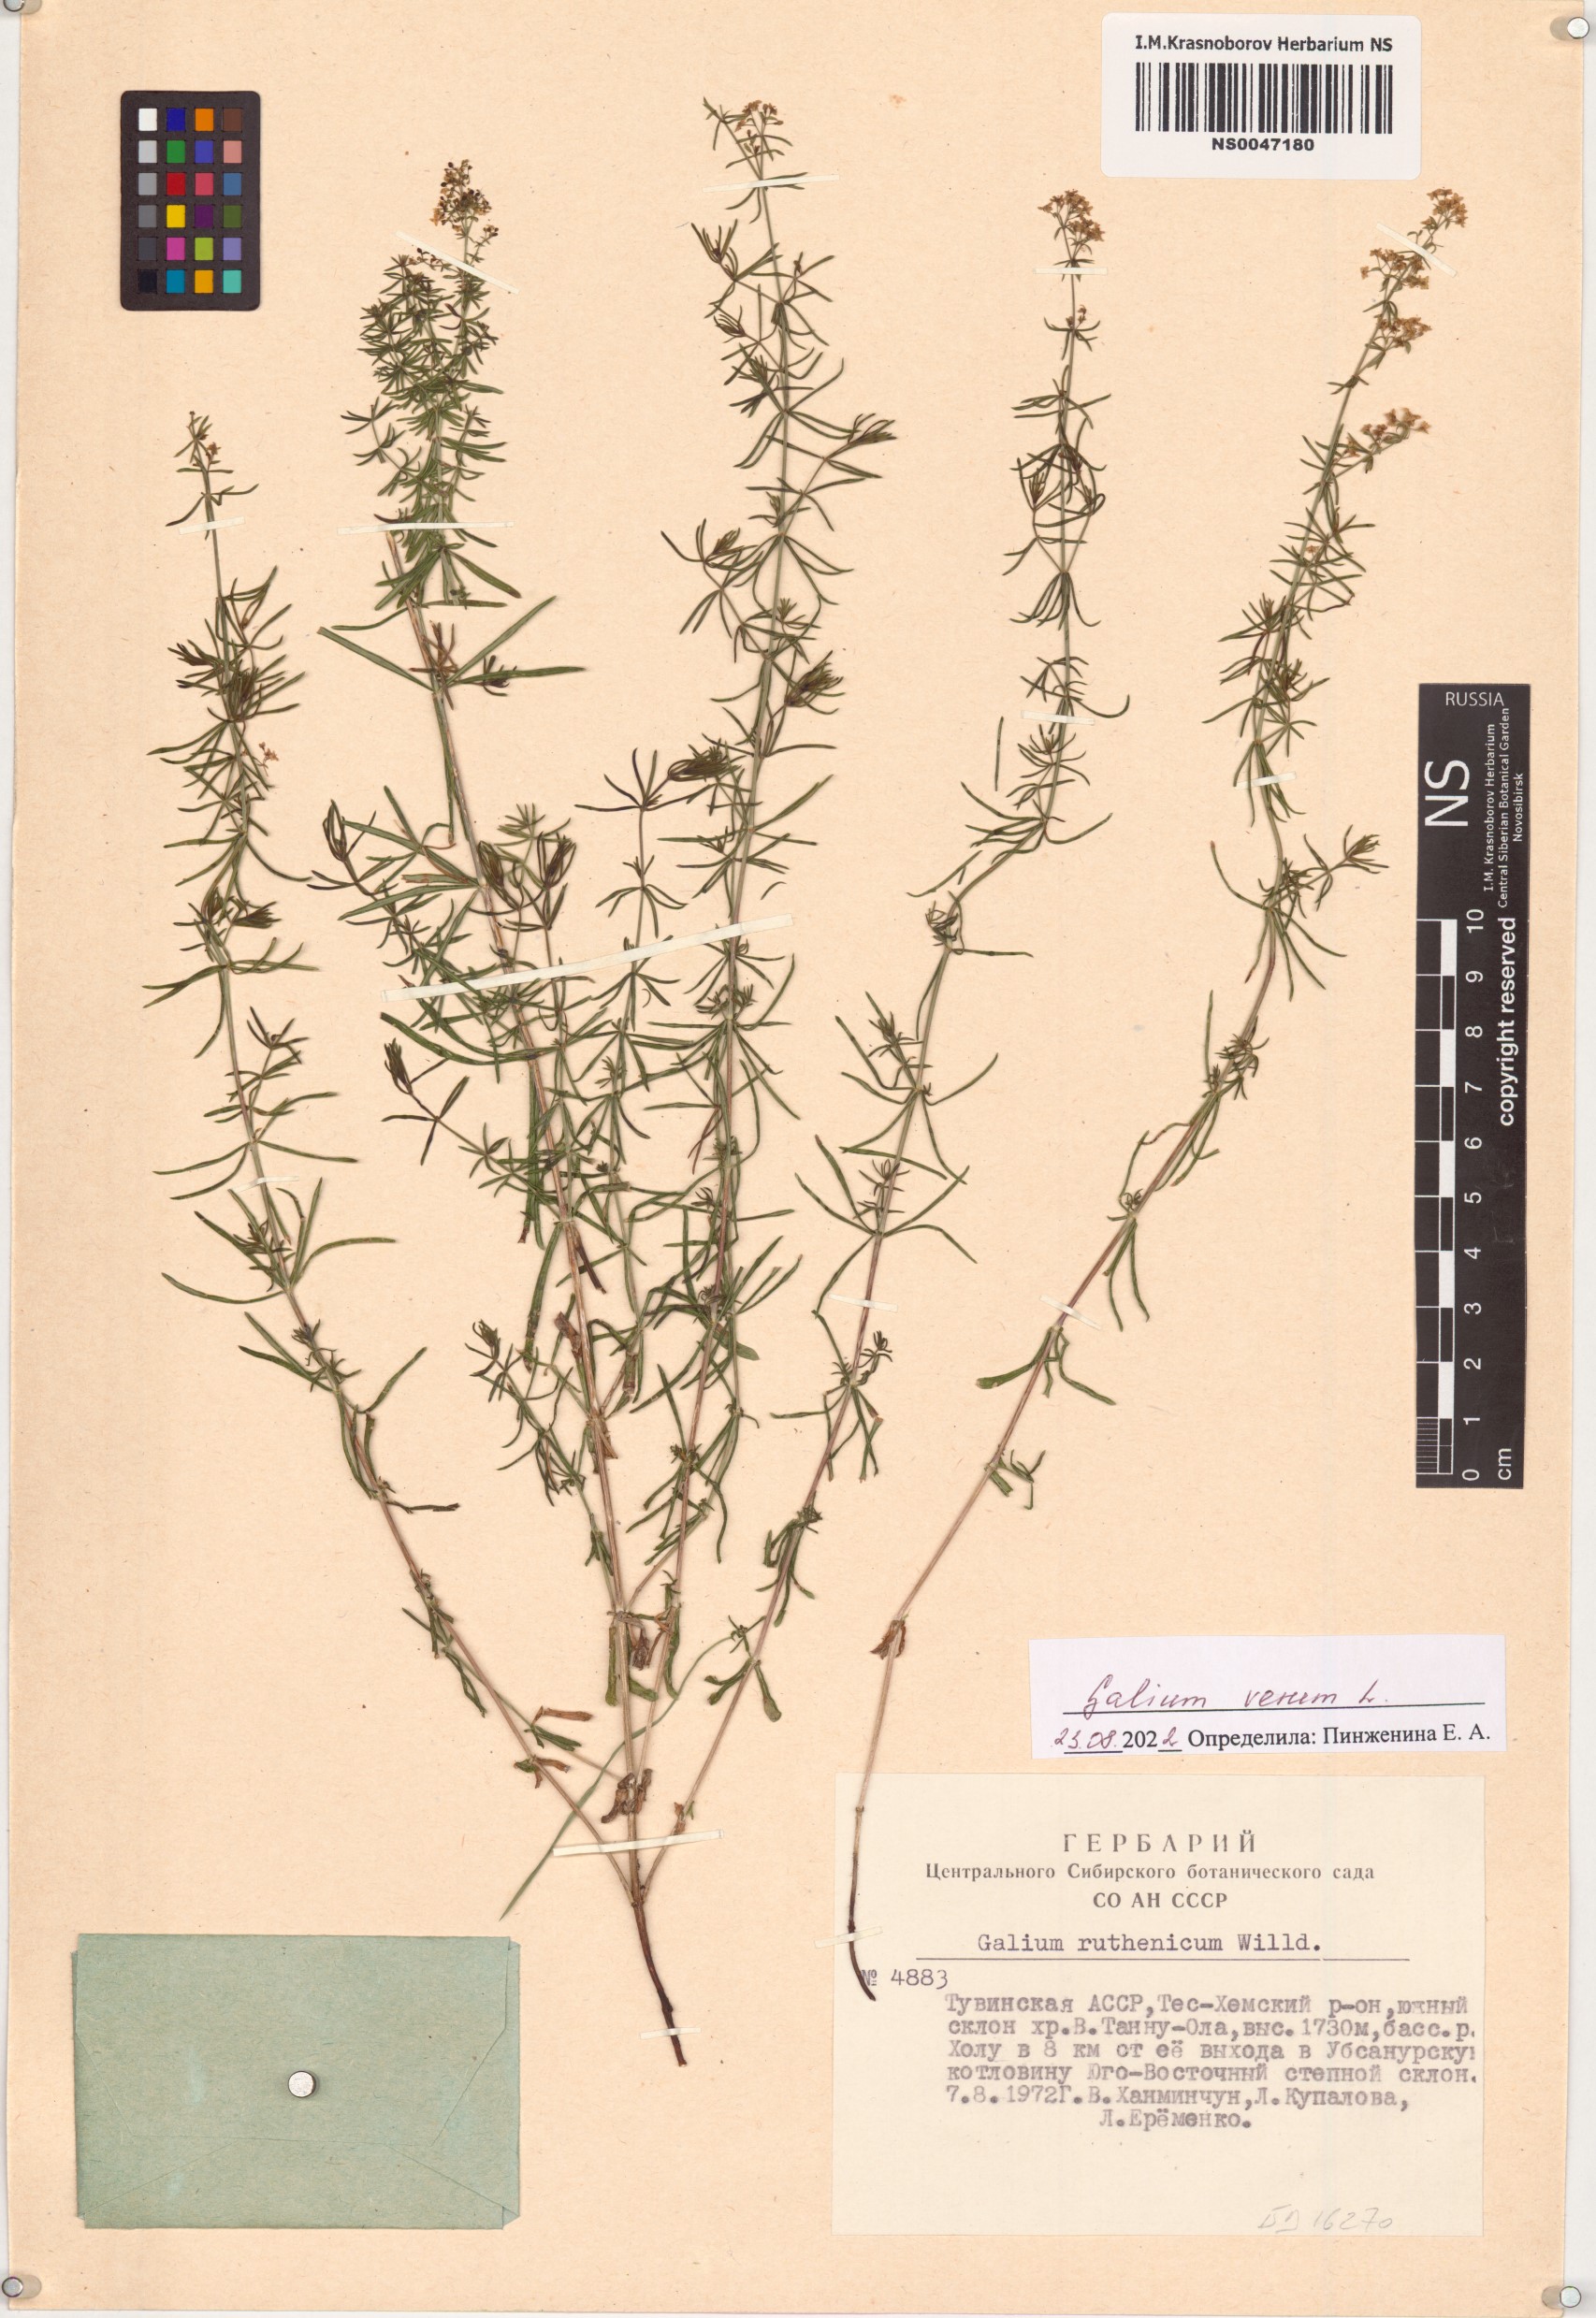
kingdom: Plantae
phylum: Tracheophyta
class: Magnoliopsida
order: Gentianales
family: Rubiaceae
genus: Galium
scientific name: Galium verum
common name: Lady's bedstraw
